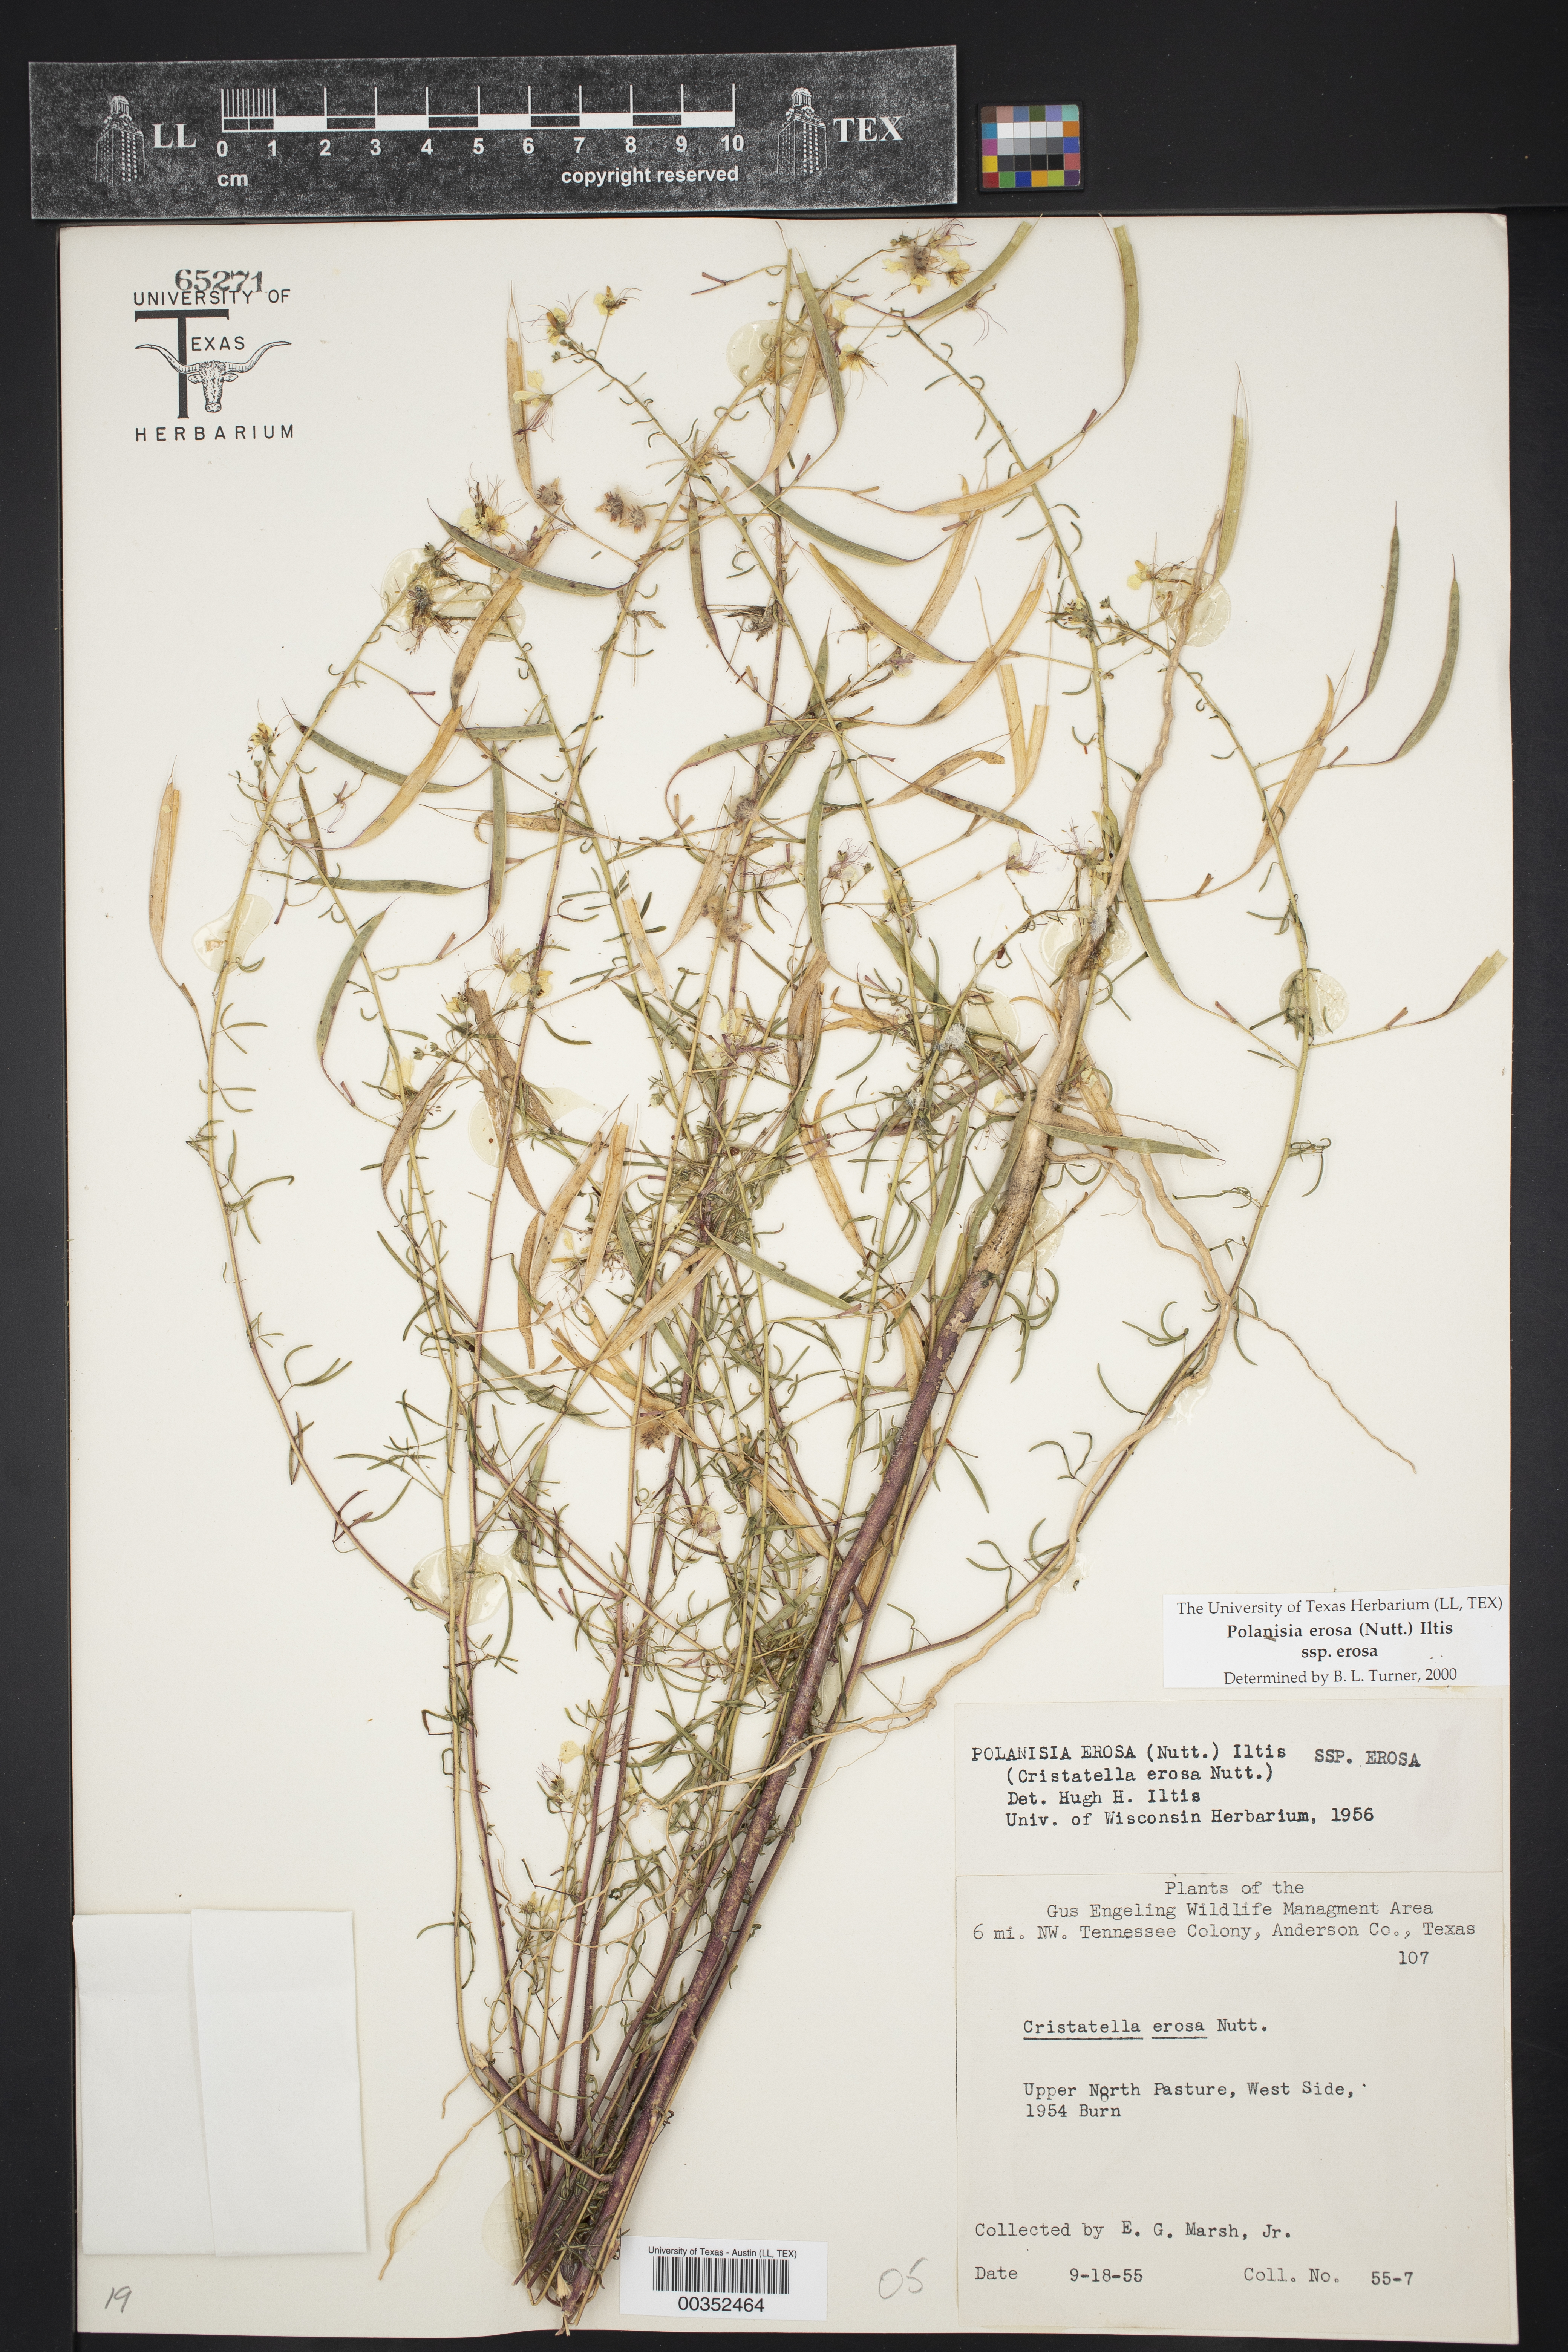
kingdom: Plantae
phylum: Tracheophyta
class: Magnoliopsida
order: Brassicales
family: Cleomaceae
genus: Polanisia
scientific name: Polanisia erosa
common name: Large clammyweed
